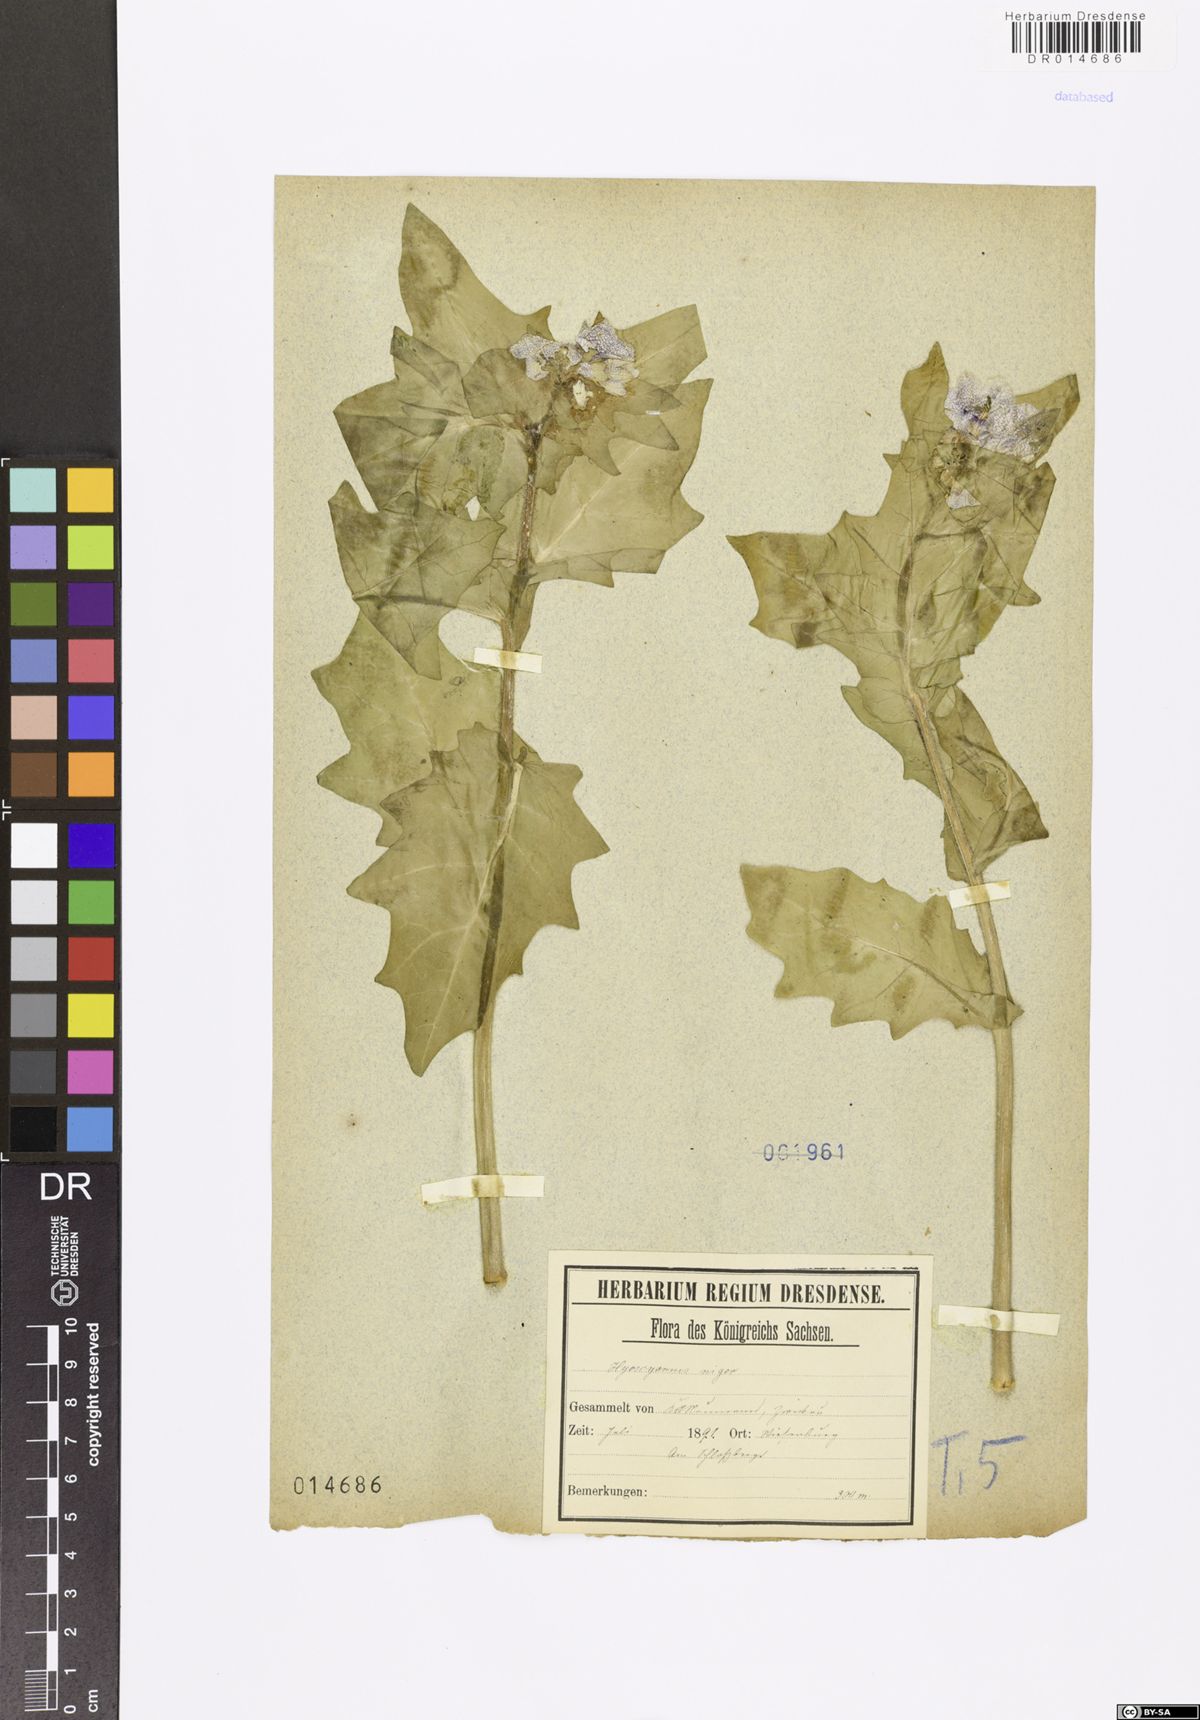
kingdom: Plantae
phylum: Tracheophyta
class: Magnoliopsida
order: Solanales
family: Solanaceae
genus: Hyoscyamus
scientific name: Hyoscyamus niger
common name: Henbane
